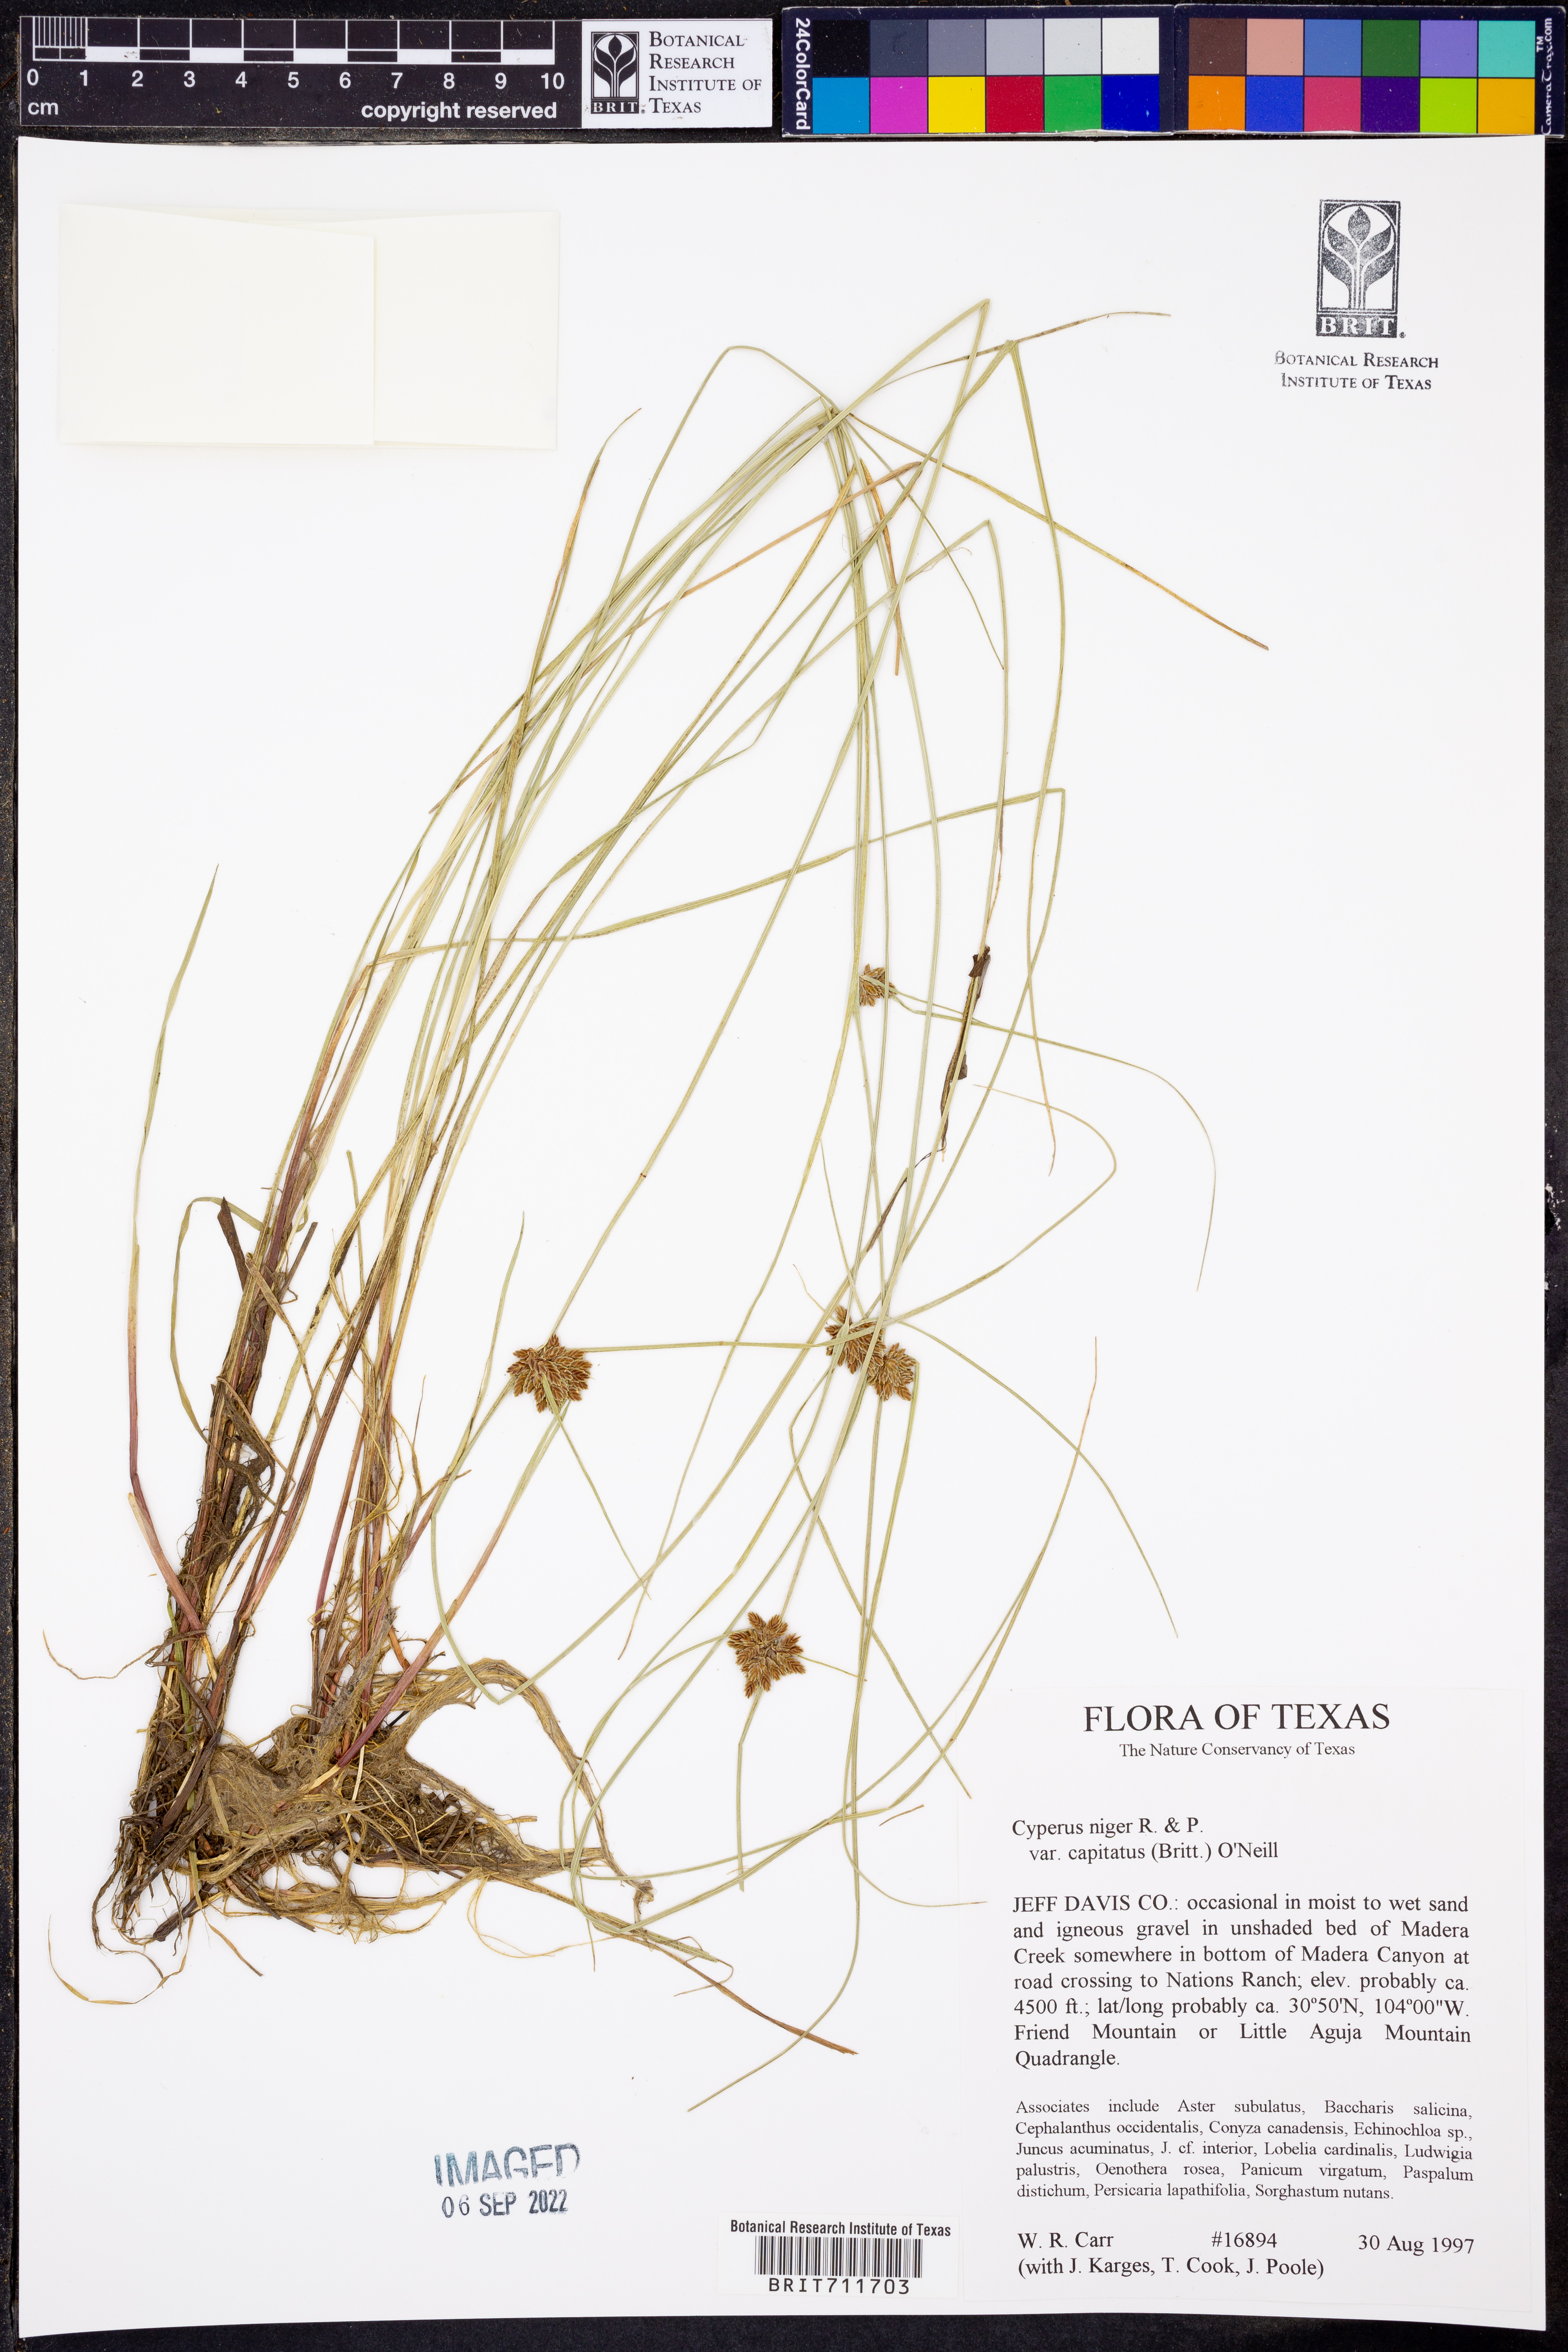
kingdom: Plantae
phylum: Tracheophyta
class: Liliopsida
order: Poales
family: Cyperaceae
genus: Cyperus
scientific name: Cyperus melanostachyus
